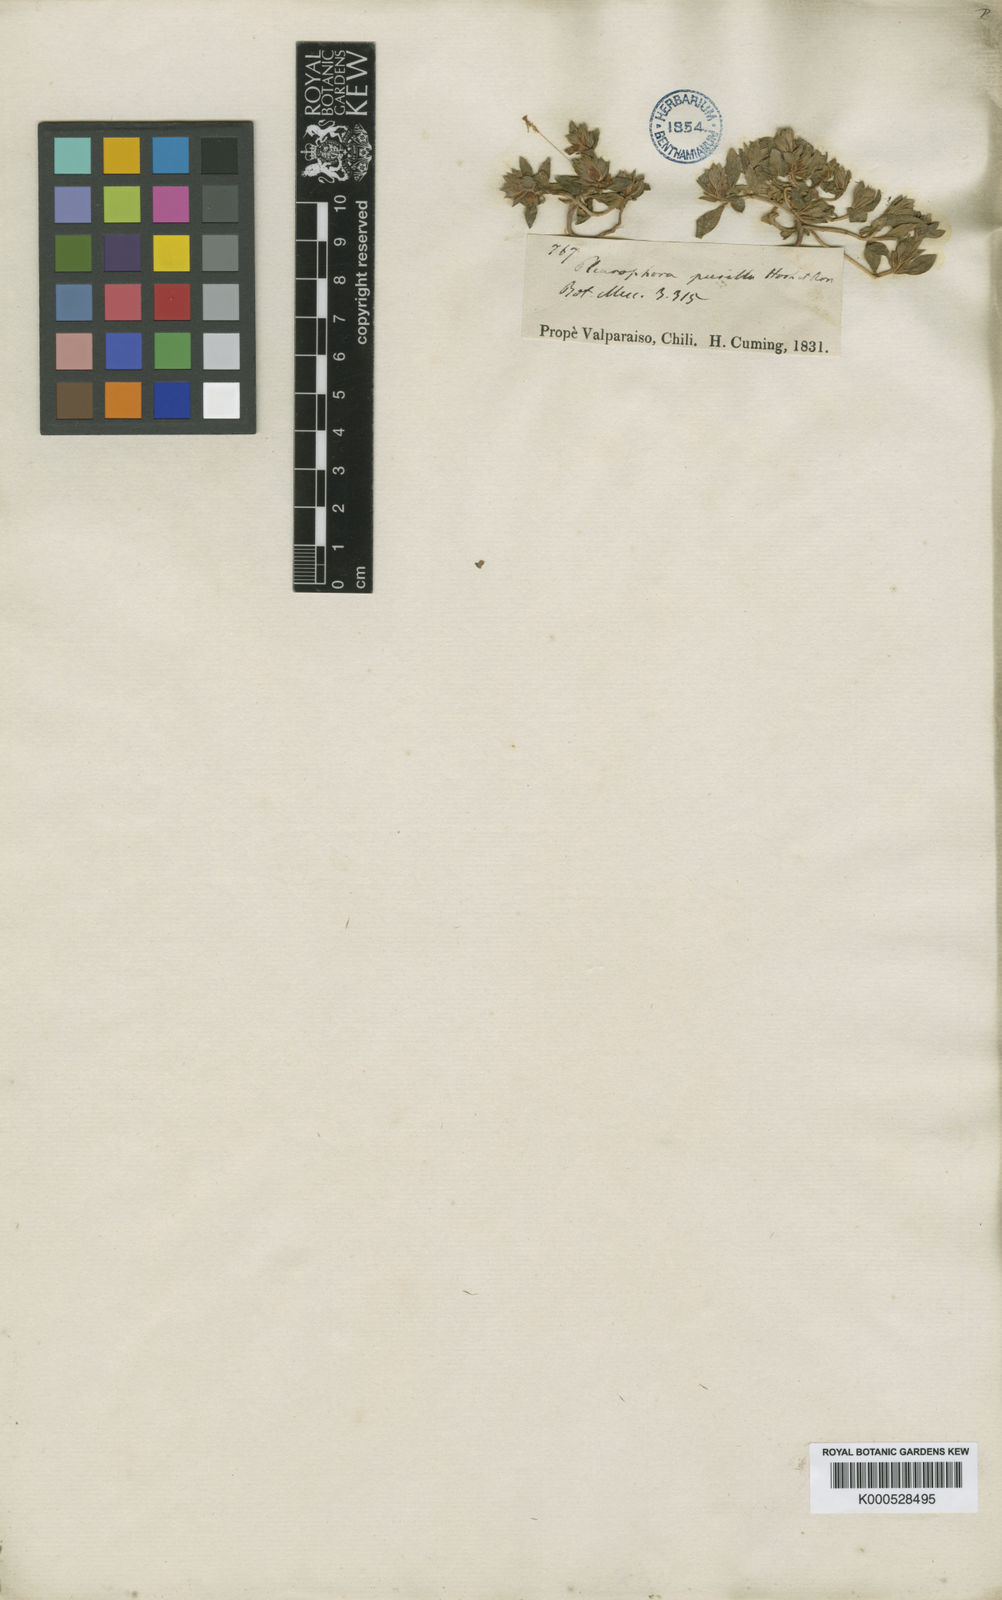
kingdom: Plantae
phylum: Tracheophyta
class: Magnoliopsida
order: Myrtales
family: Lythraceae
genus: Pleurophora
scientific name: Pleurophora pusilla
